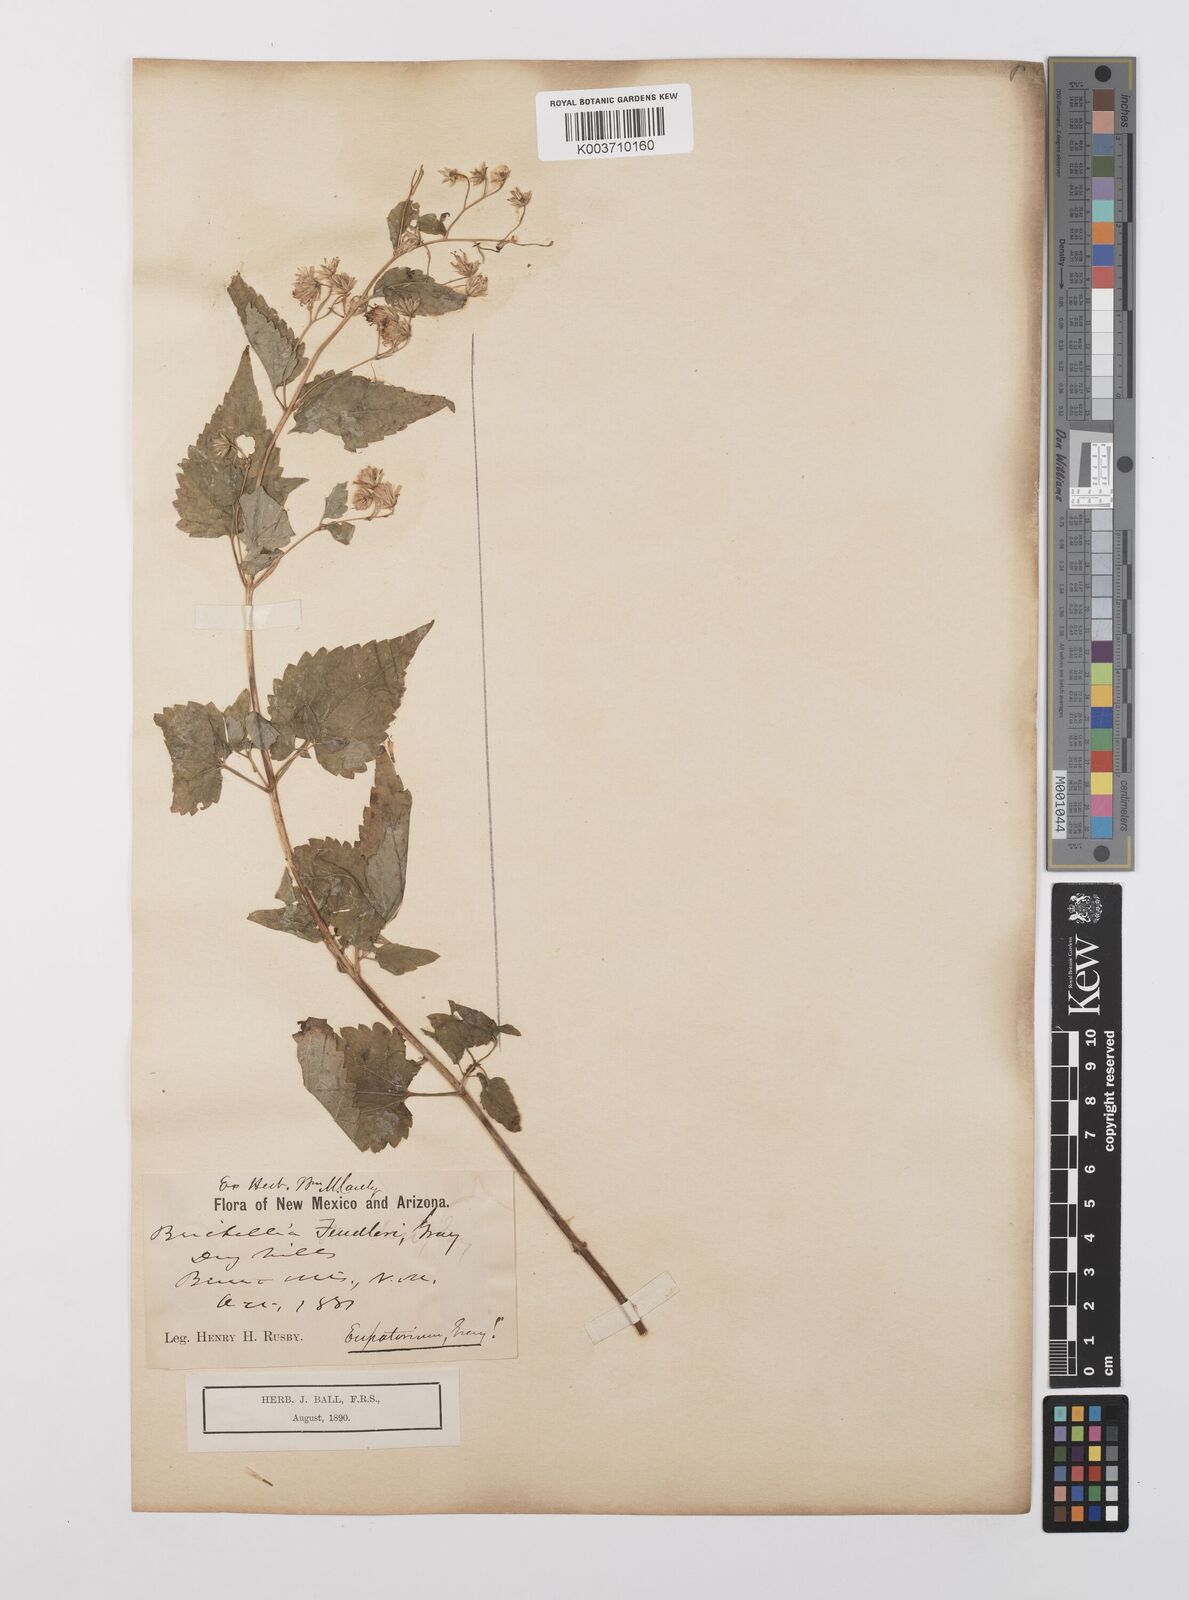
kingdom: Plantae
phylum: Tracheophyta
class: Magnoliopsida
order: Asterales
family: Asteraceae
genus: Brickelliastrum
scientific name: Brickelliastrum fendleri
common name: Fendler's-brickellbush
